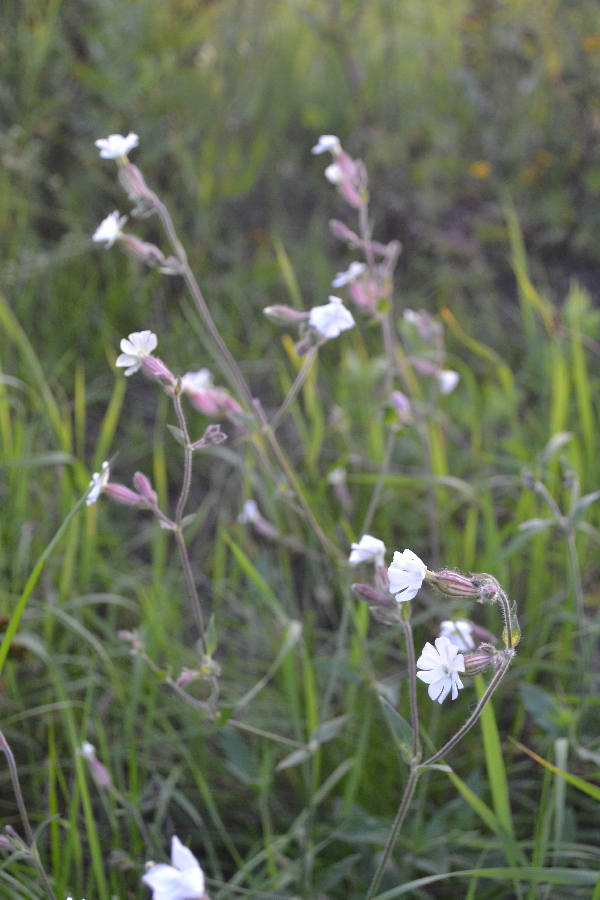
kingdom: Plantae
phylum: Tracheophyta
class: Magnoliopsida
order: Caryophyllales
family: Caryophyllaceae
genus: Silene
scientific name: Silene behen
